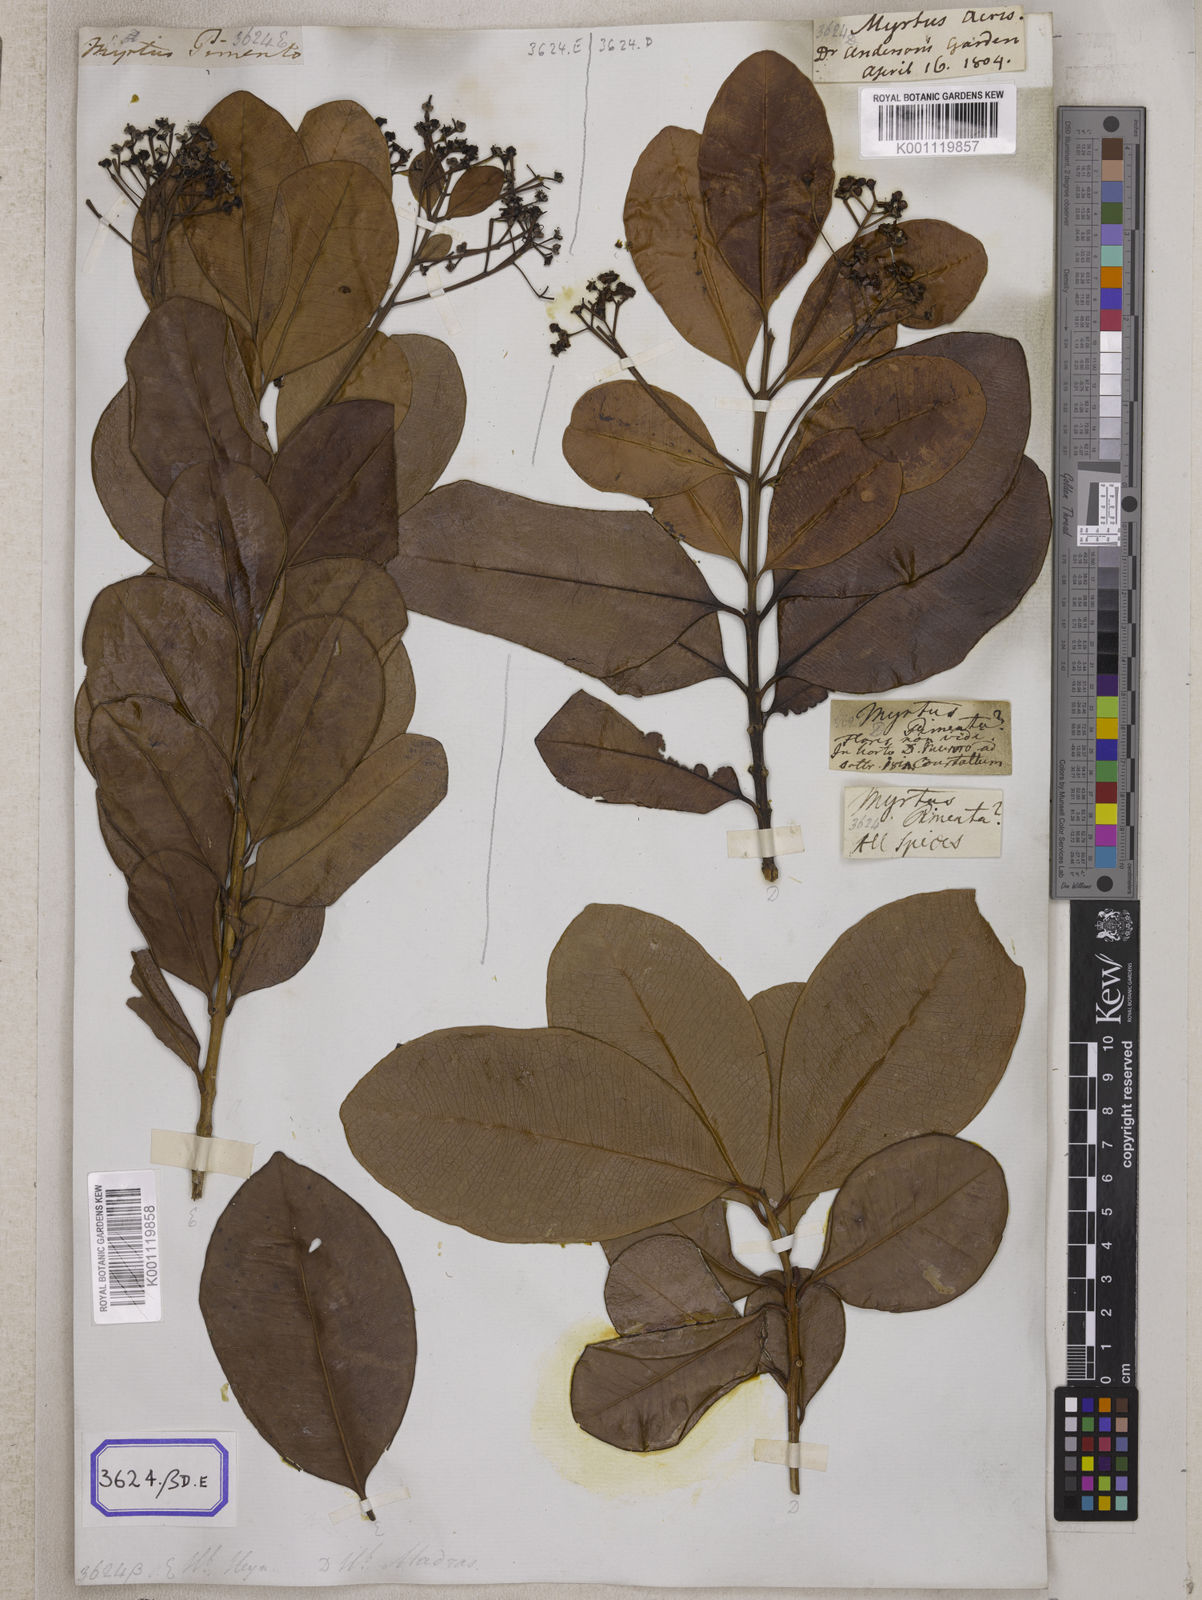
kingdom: Plantae
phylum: Tracheophyta
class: Magnoliopsida
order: Myrtales
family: Myrtaceae
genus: Pimenta
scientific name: Pimenta dioica
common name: Allspice
